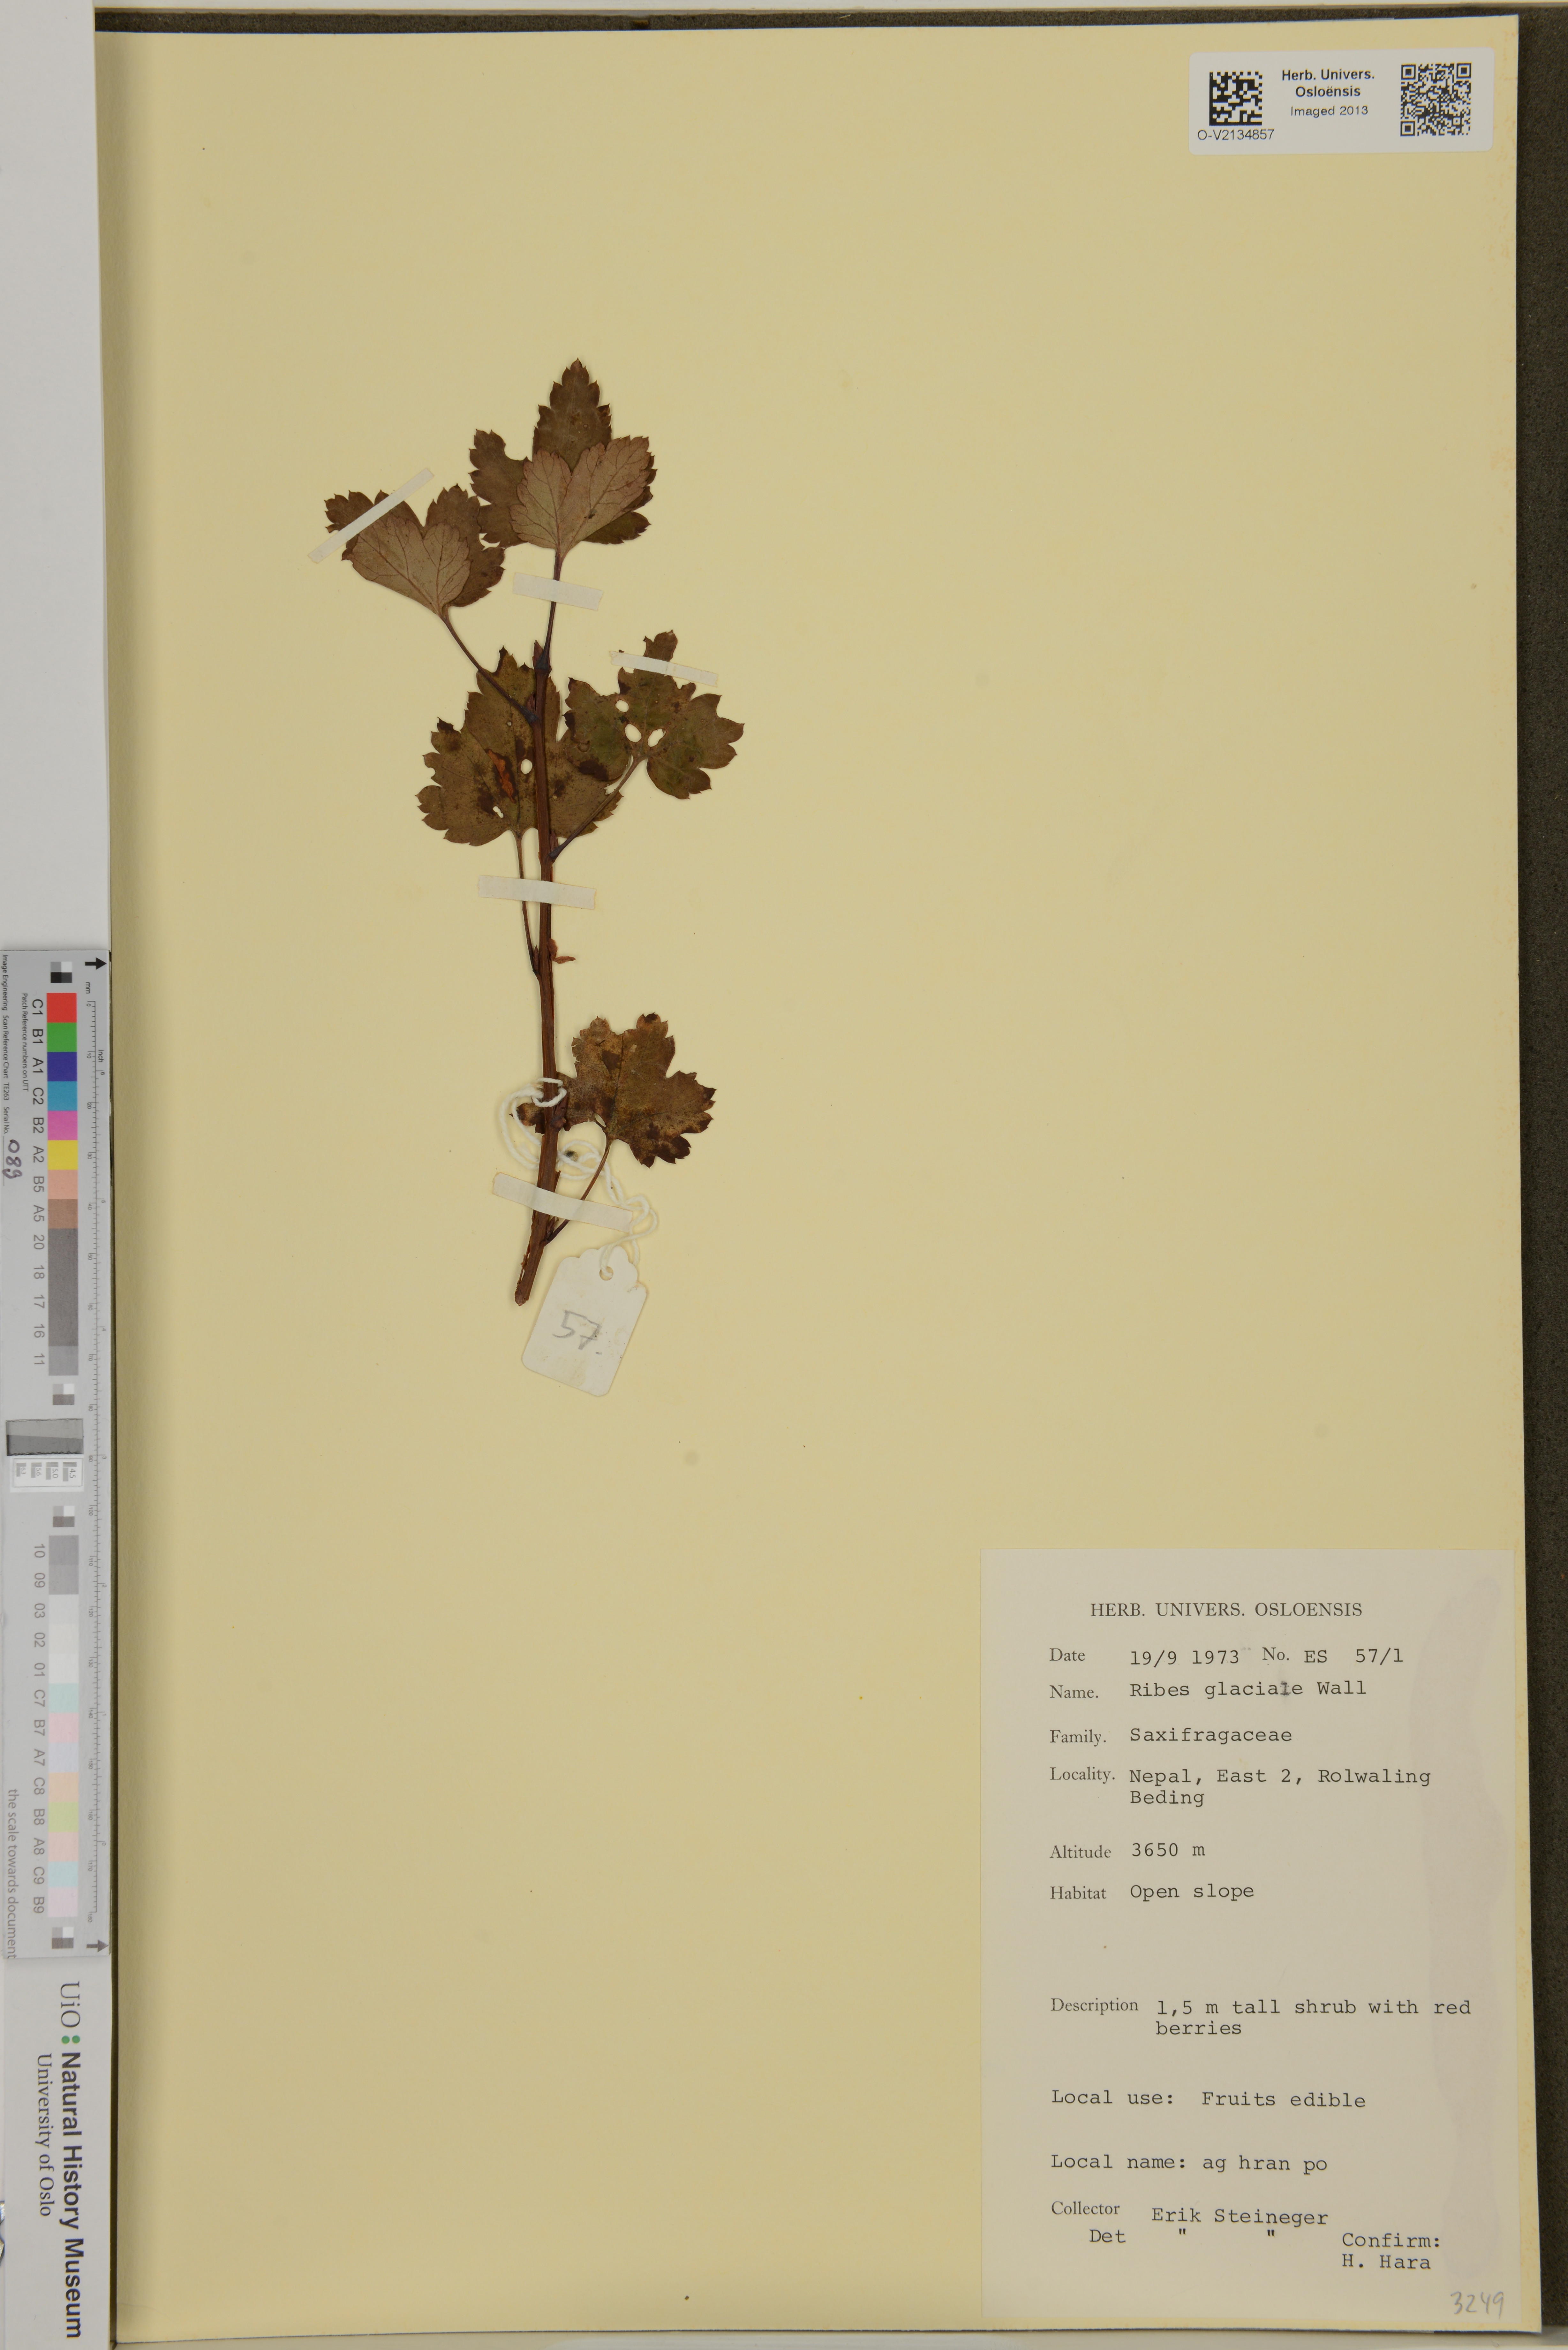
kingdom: Plantae
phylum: Tracheophyta
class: Magnoliopsida
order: Saxifragales
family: Grossulariaceae
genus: Ribes
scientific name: Ribes glaciale
